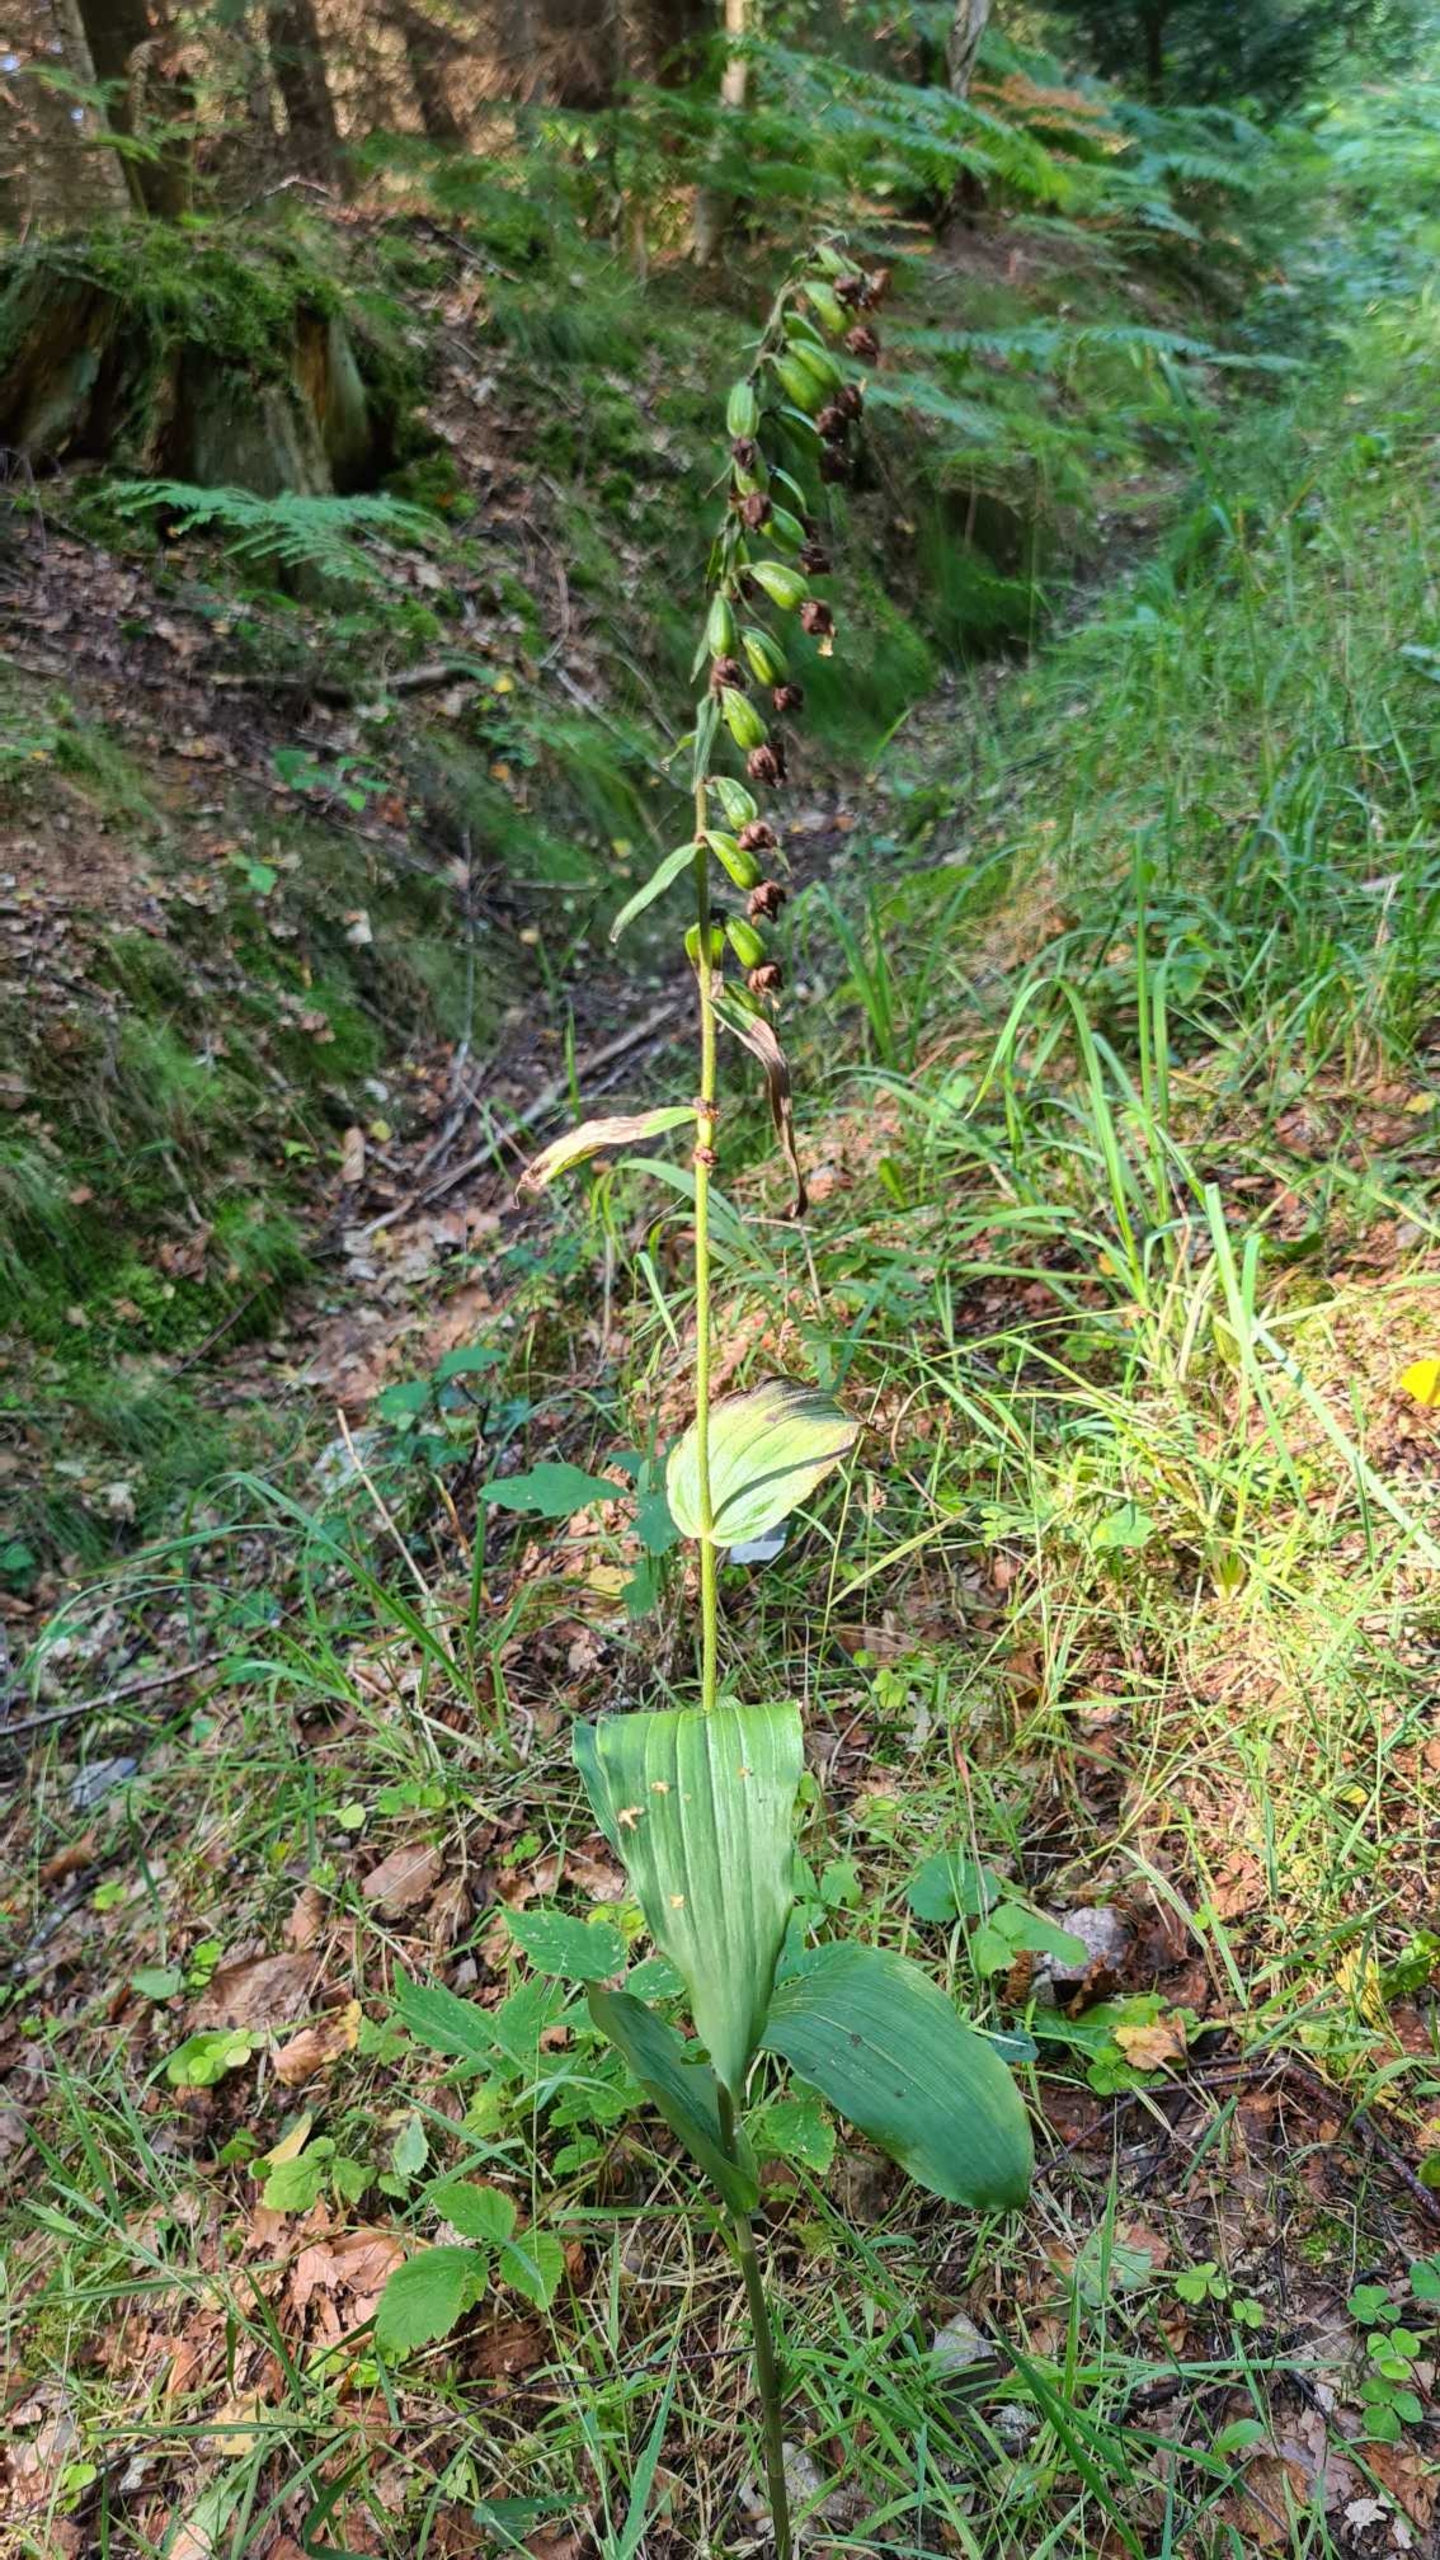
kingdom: Plantae
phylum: Tracheophyta
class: Liliopsida
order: Asparagales
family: Orchidaceae
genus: Epipactis
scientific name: Epipactis helleborine
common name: Skov-hullæbe
